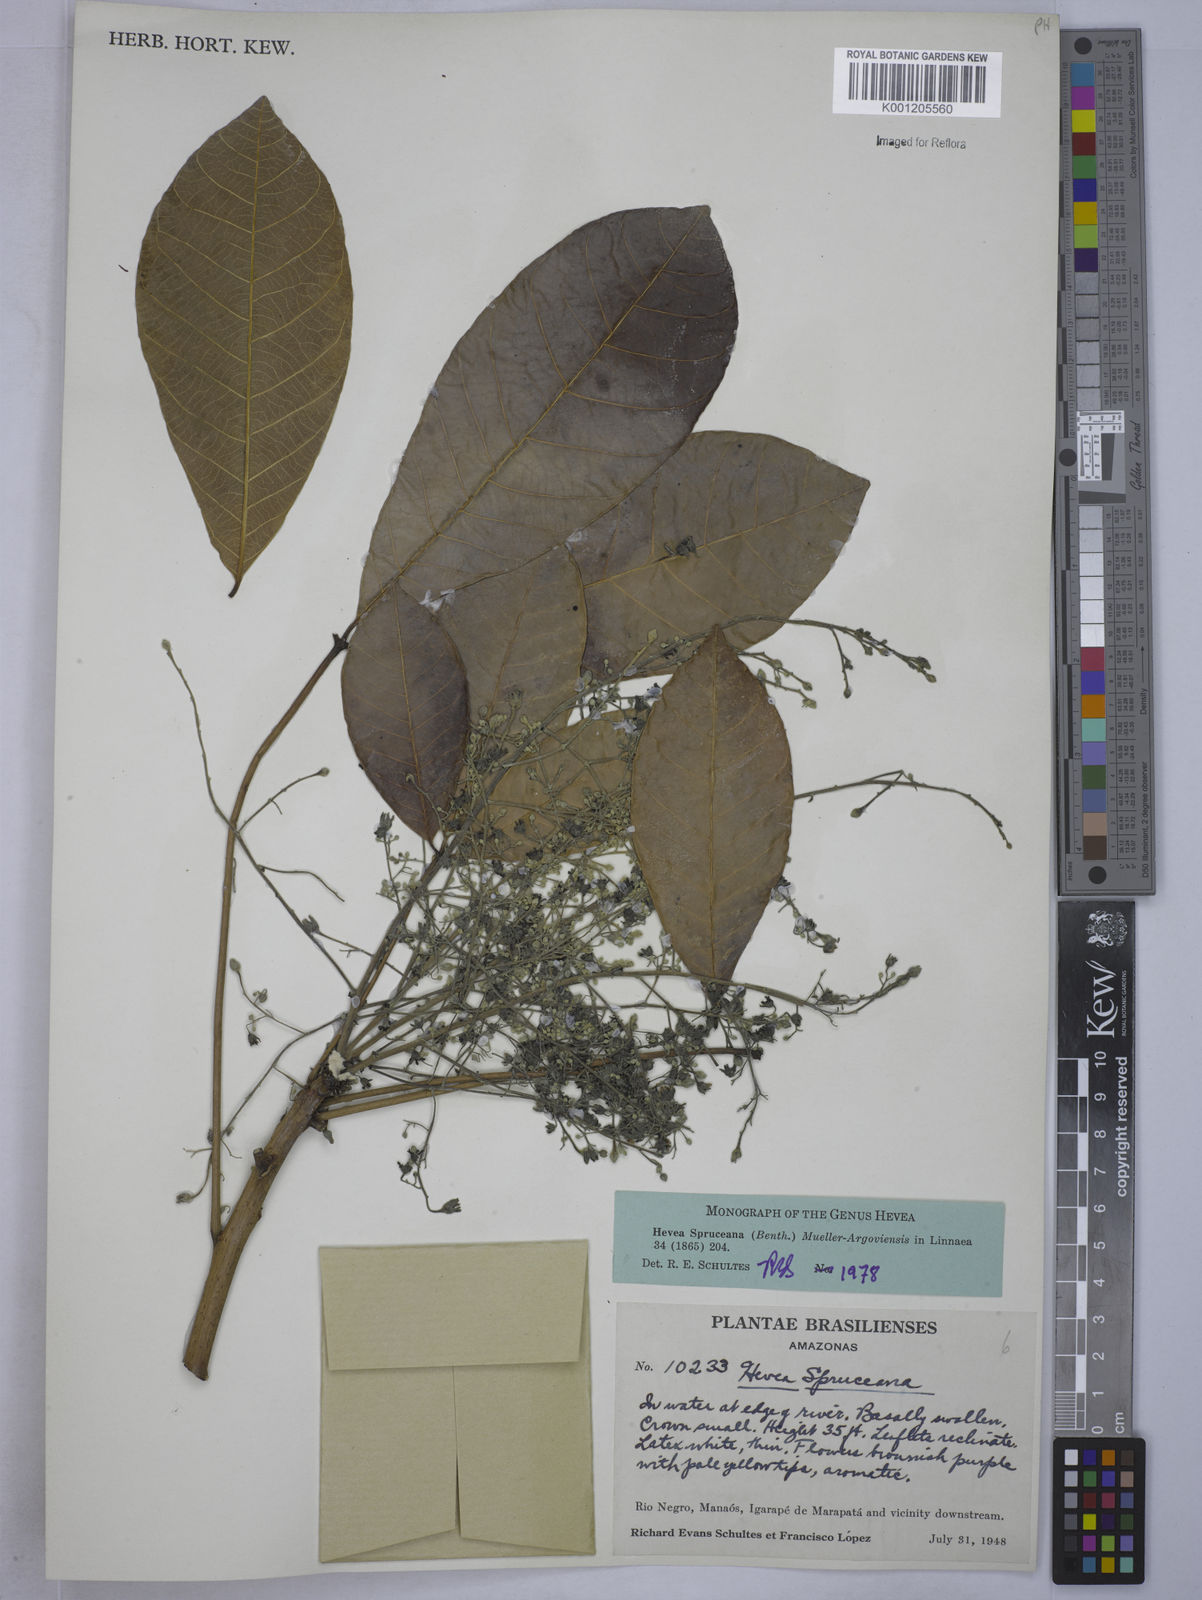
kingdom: Plantae
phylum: Tracheophyta
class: Magnoliopsida
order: Malpighiales
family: Euphorbiaceae
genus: Hevea
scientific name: Hevea
